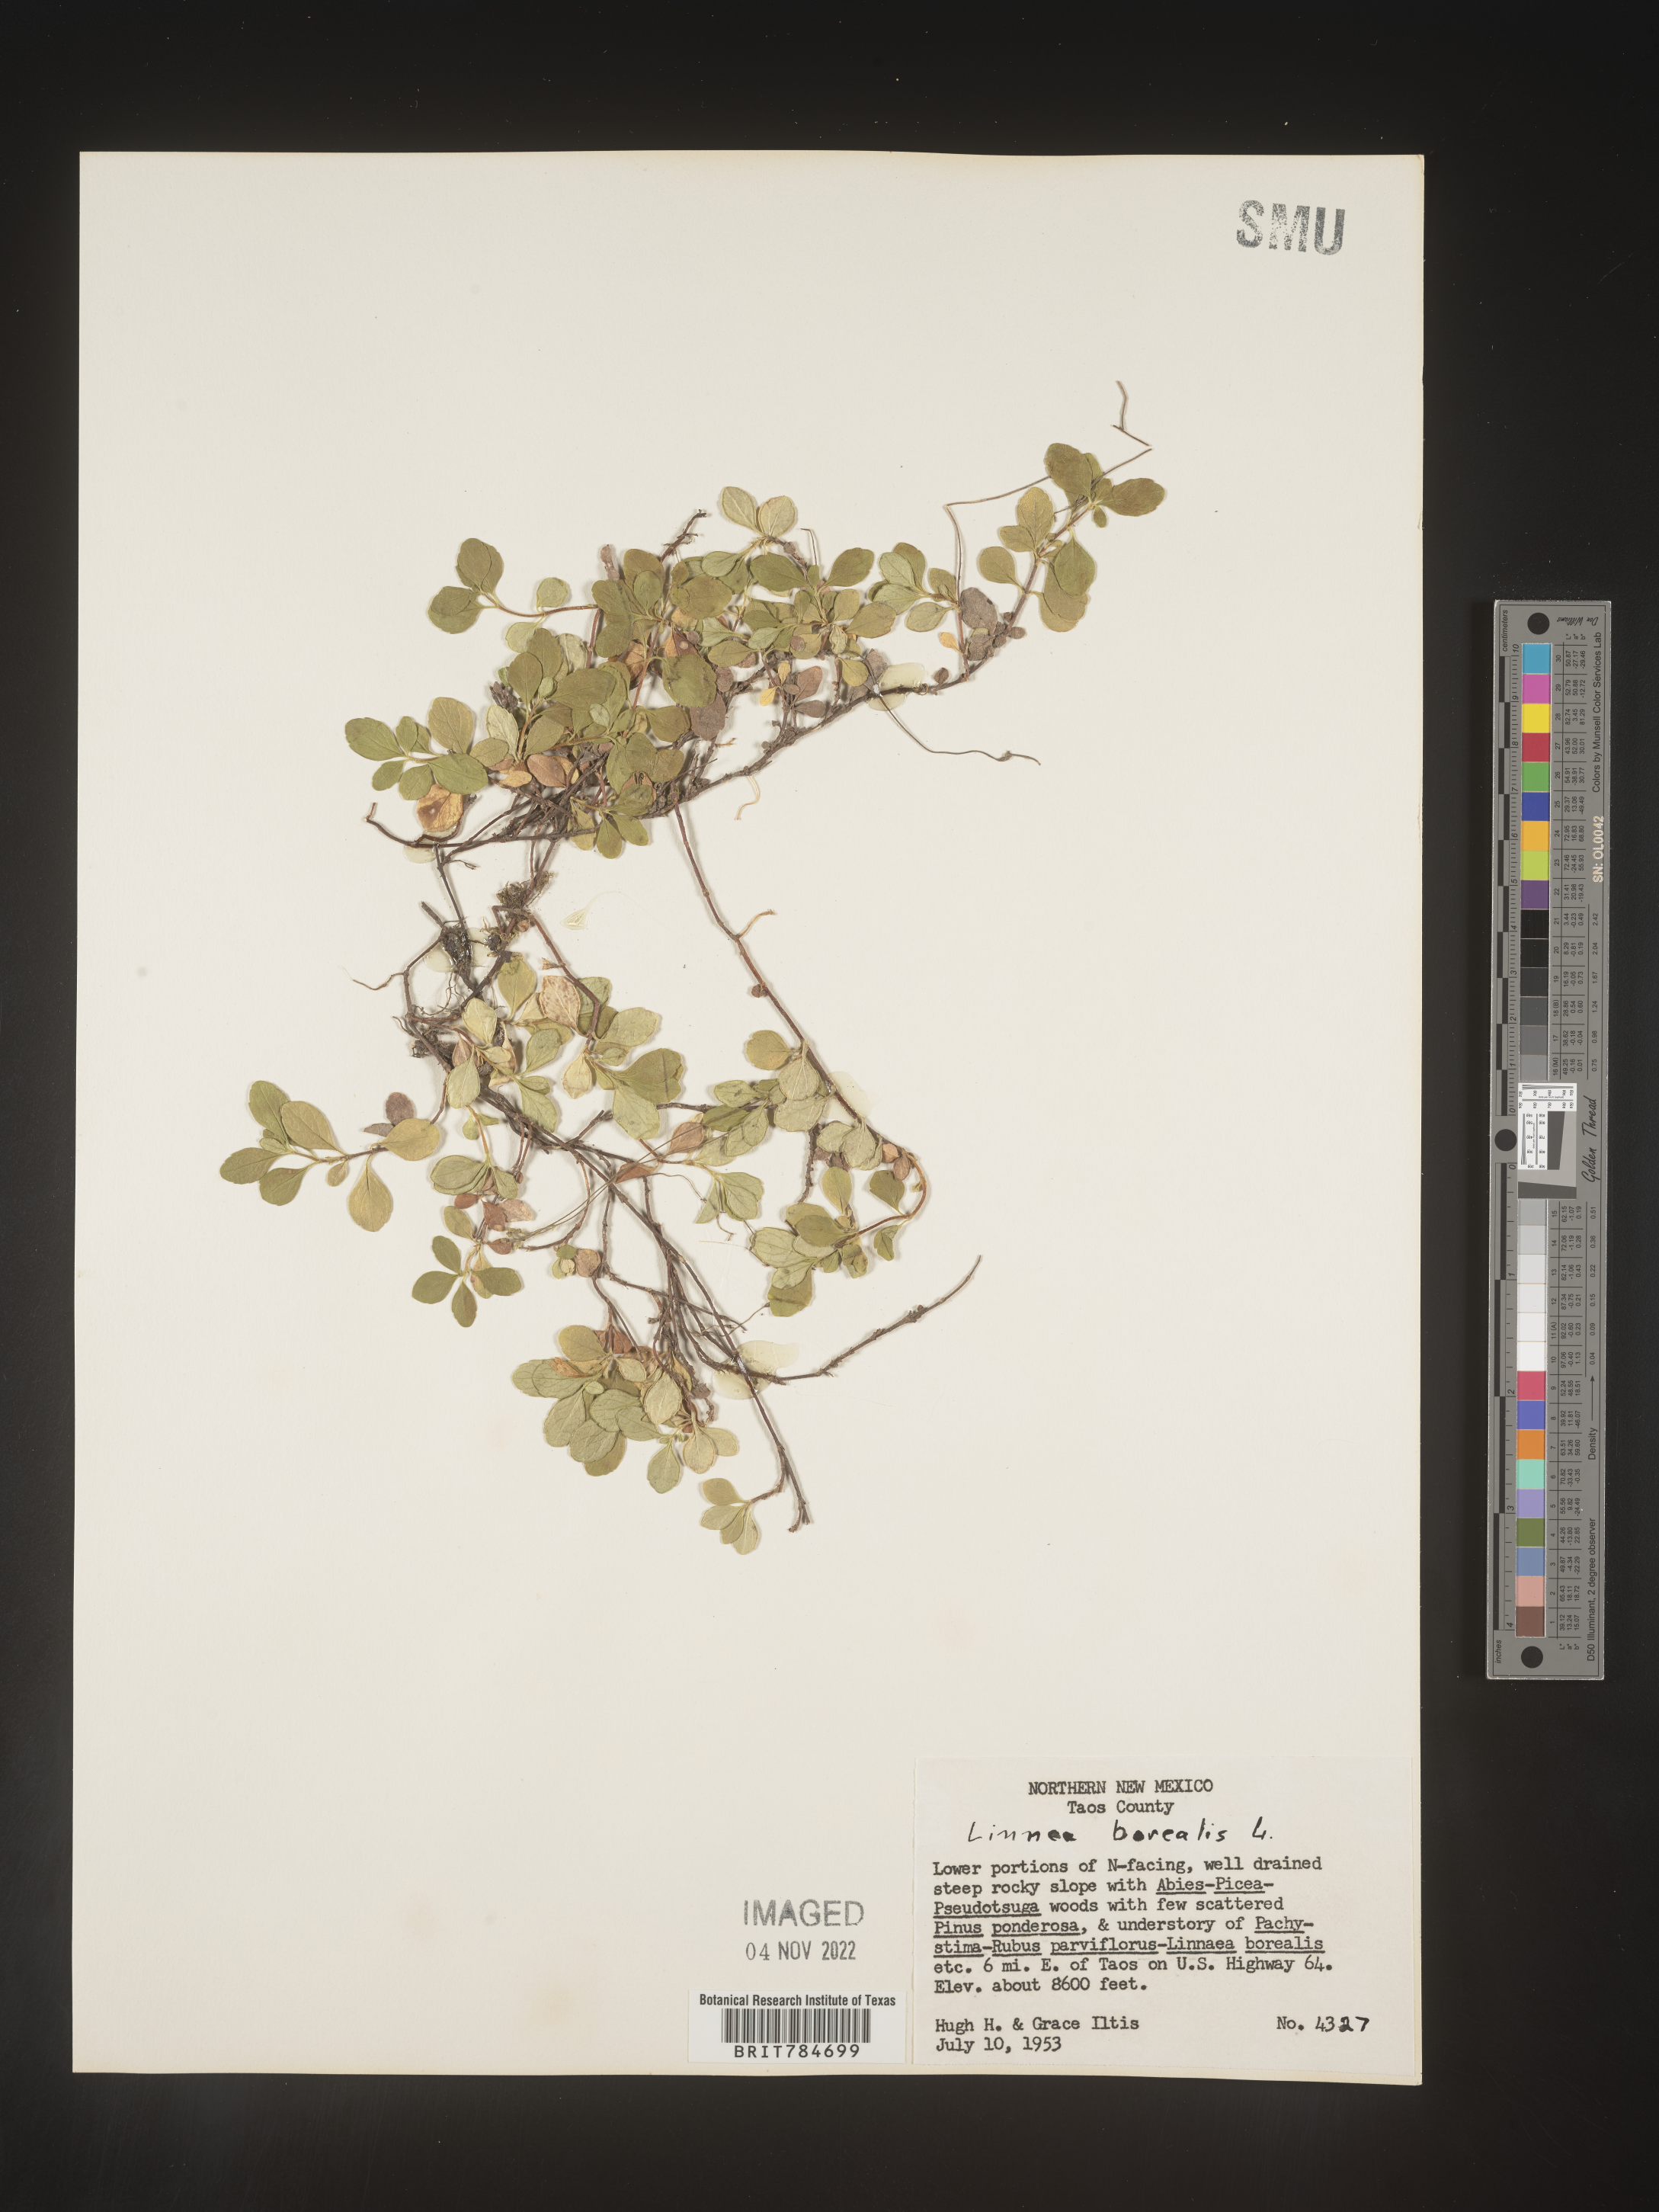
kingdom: Plantae
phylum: Tracheophyta
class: Magnoliopsida
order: Dipsacales
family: Caprifoliaceae
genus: Linnaea
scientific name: Linnaea borealis
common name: Twinflower
